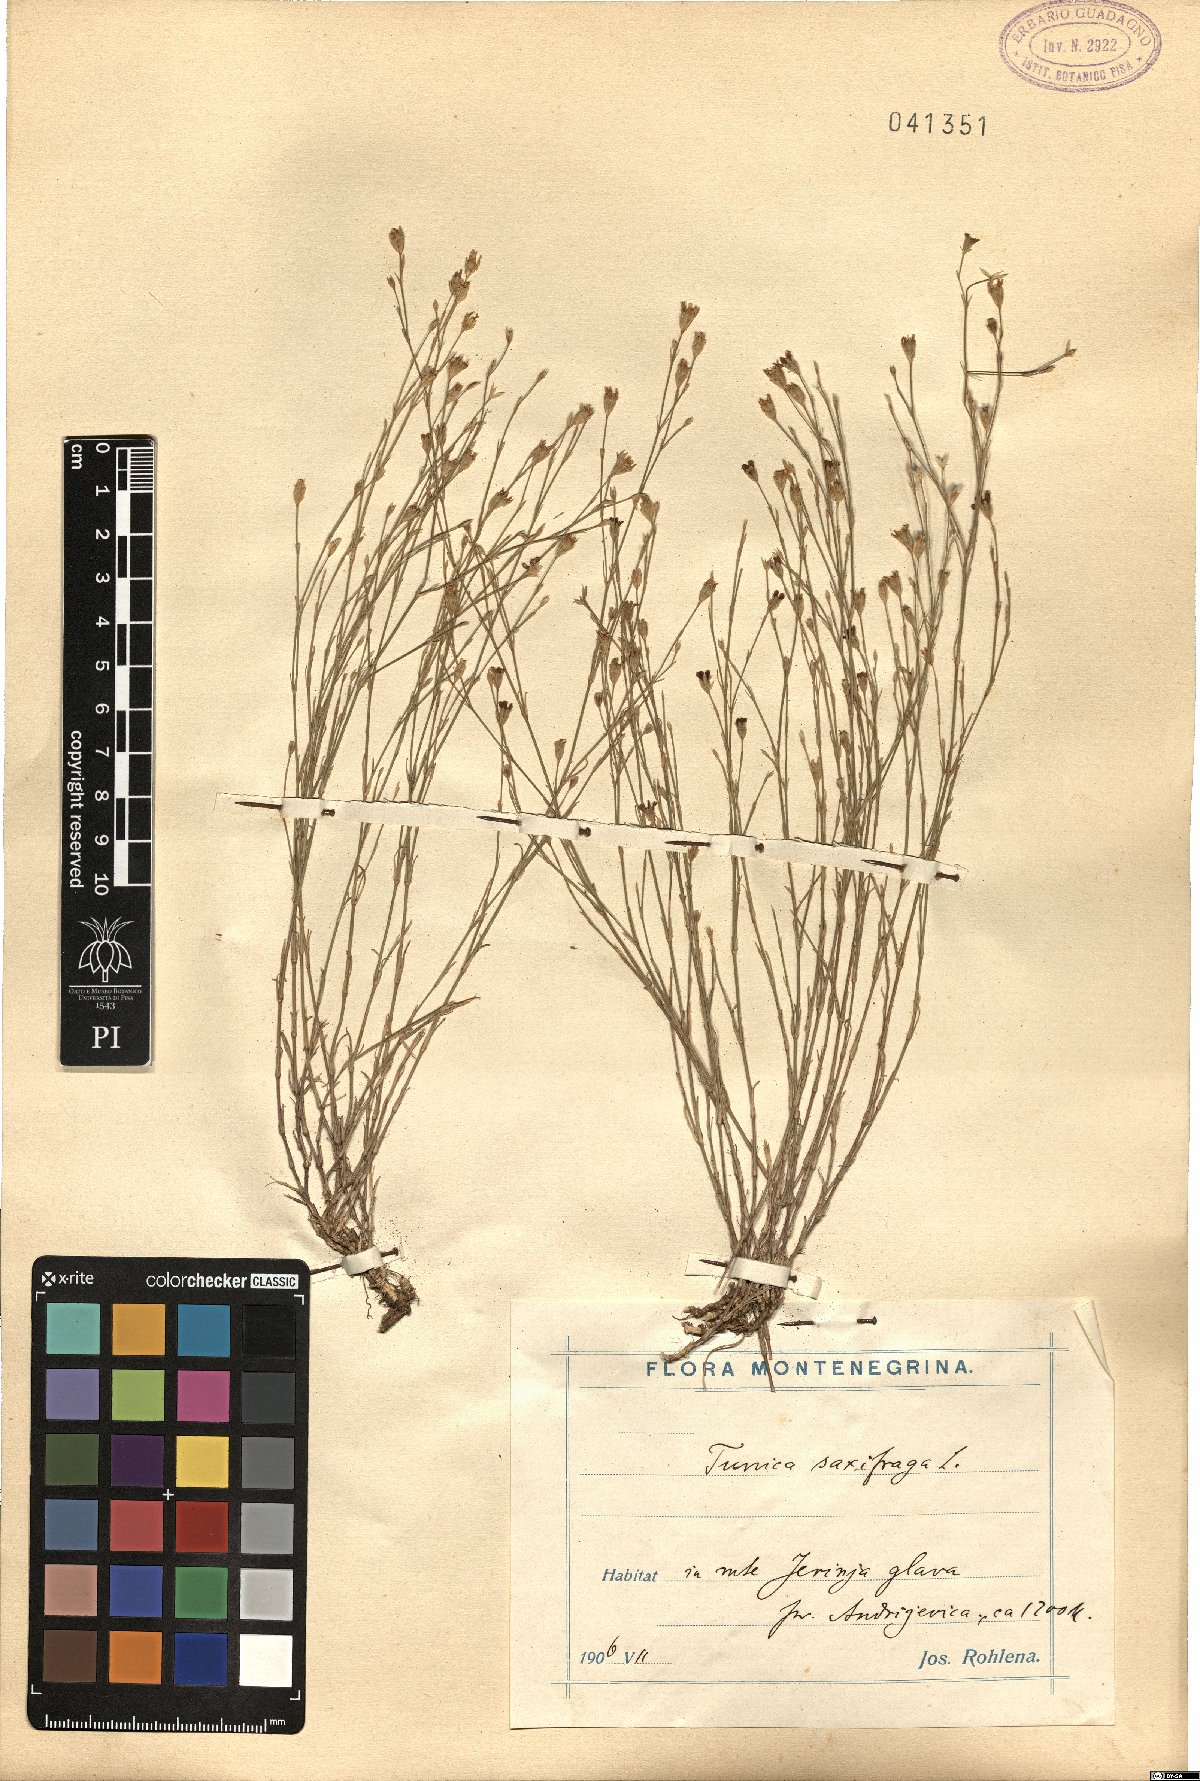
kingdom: Plantae
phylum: Tracheophyta
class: Magnoliopsida
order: Caryophyllales
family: Caryophyllaceae
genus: Petrorhagia
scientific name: Petrorhagia saxifraga
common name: Tunicflower
